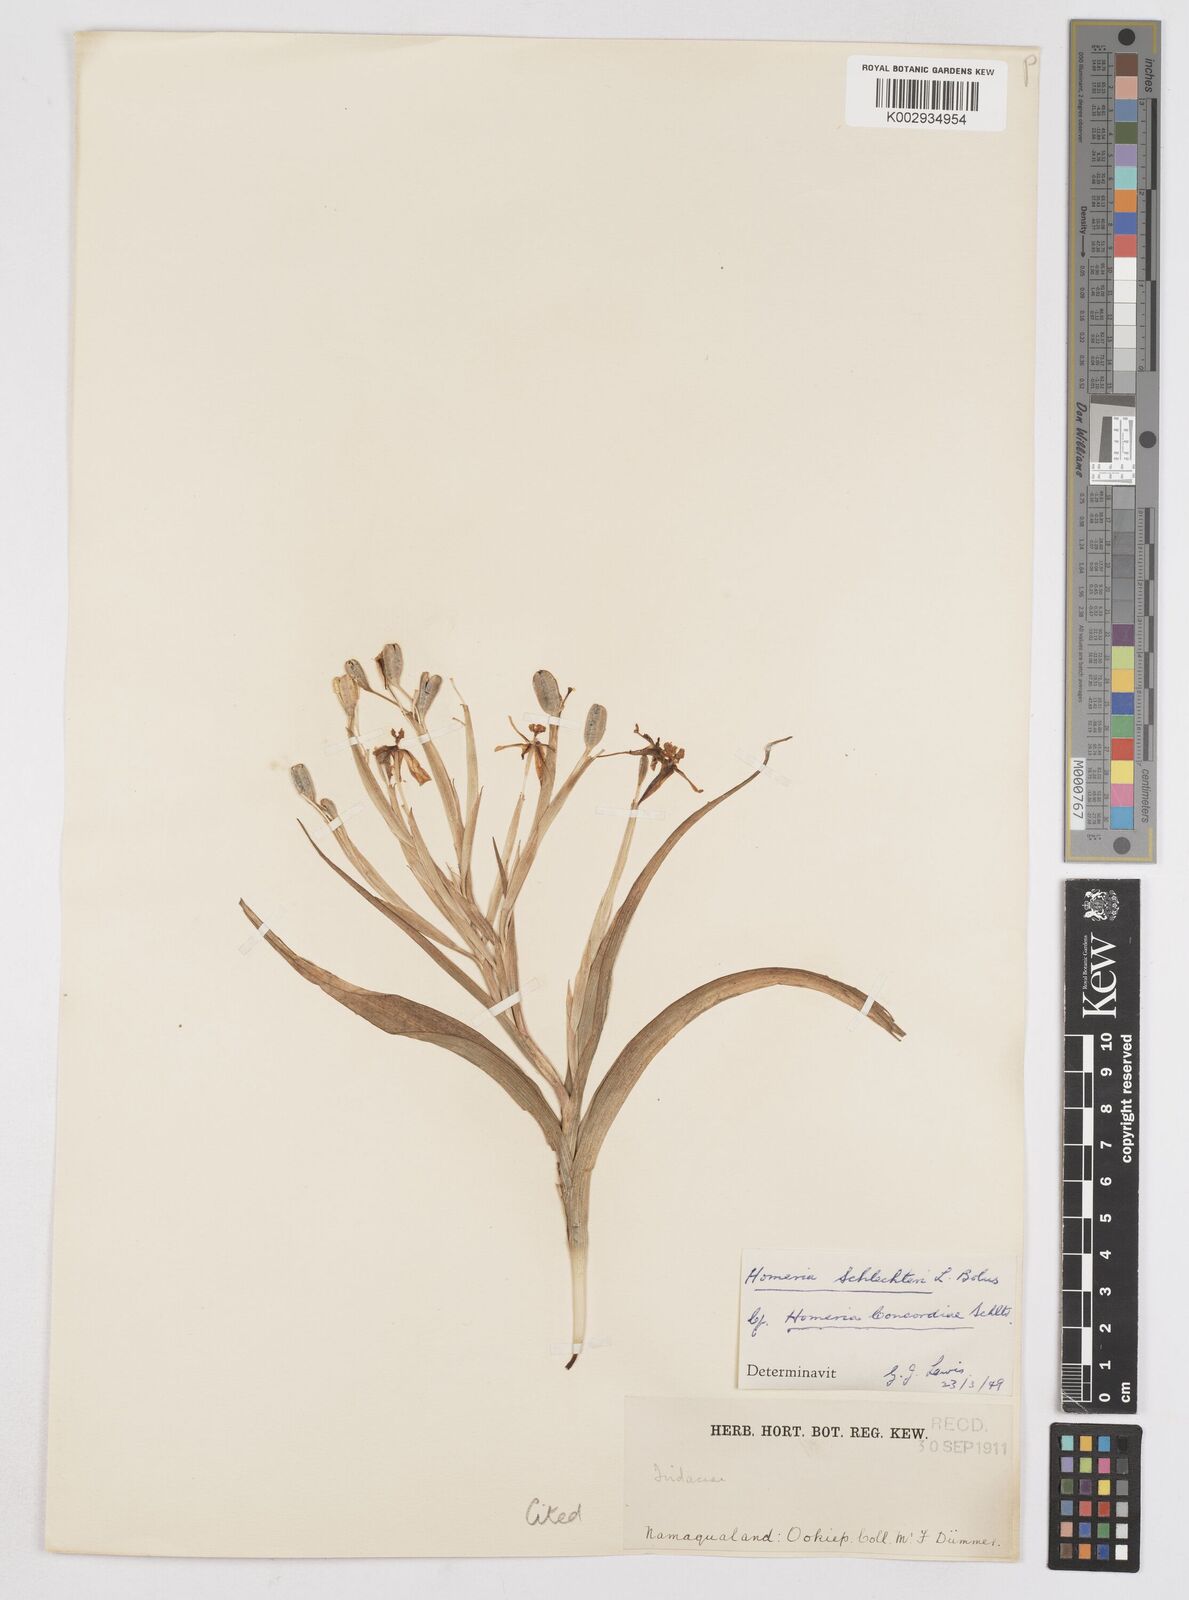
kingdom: Plantae
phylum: Tracheophyta
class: Liliopsida
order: Asparagales
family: Iridaceae
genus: Moraea
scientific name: Moraea schlechteri
